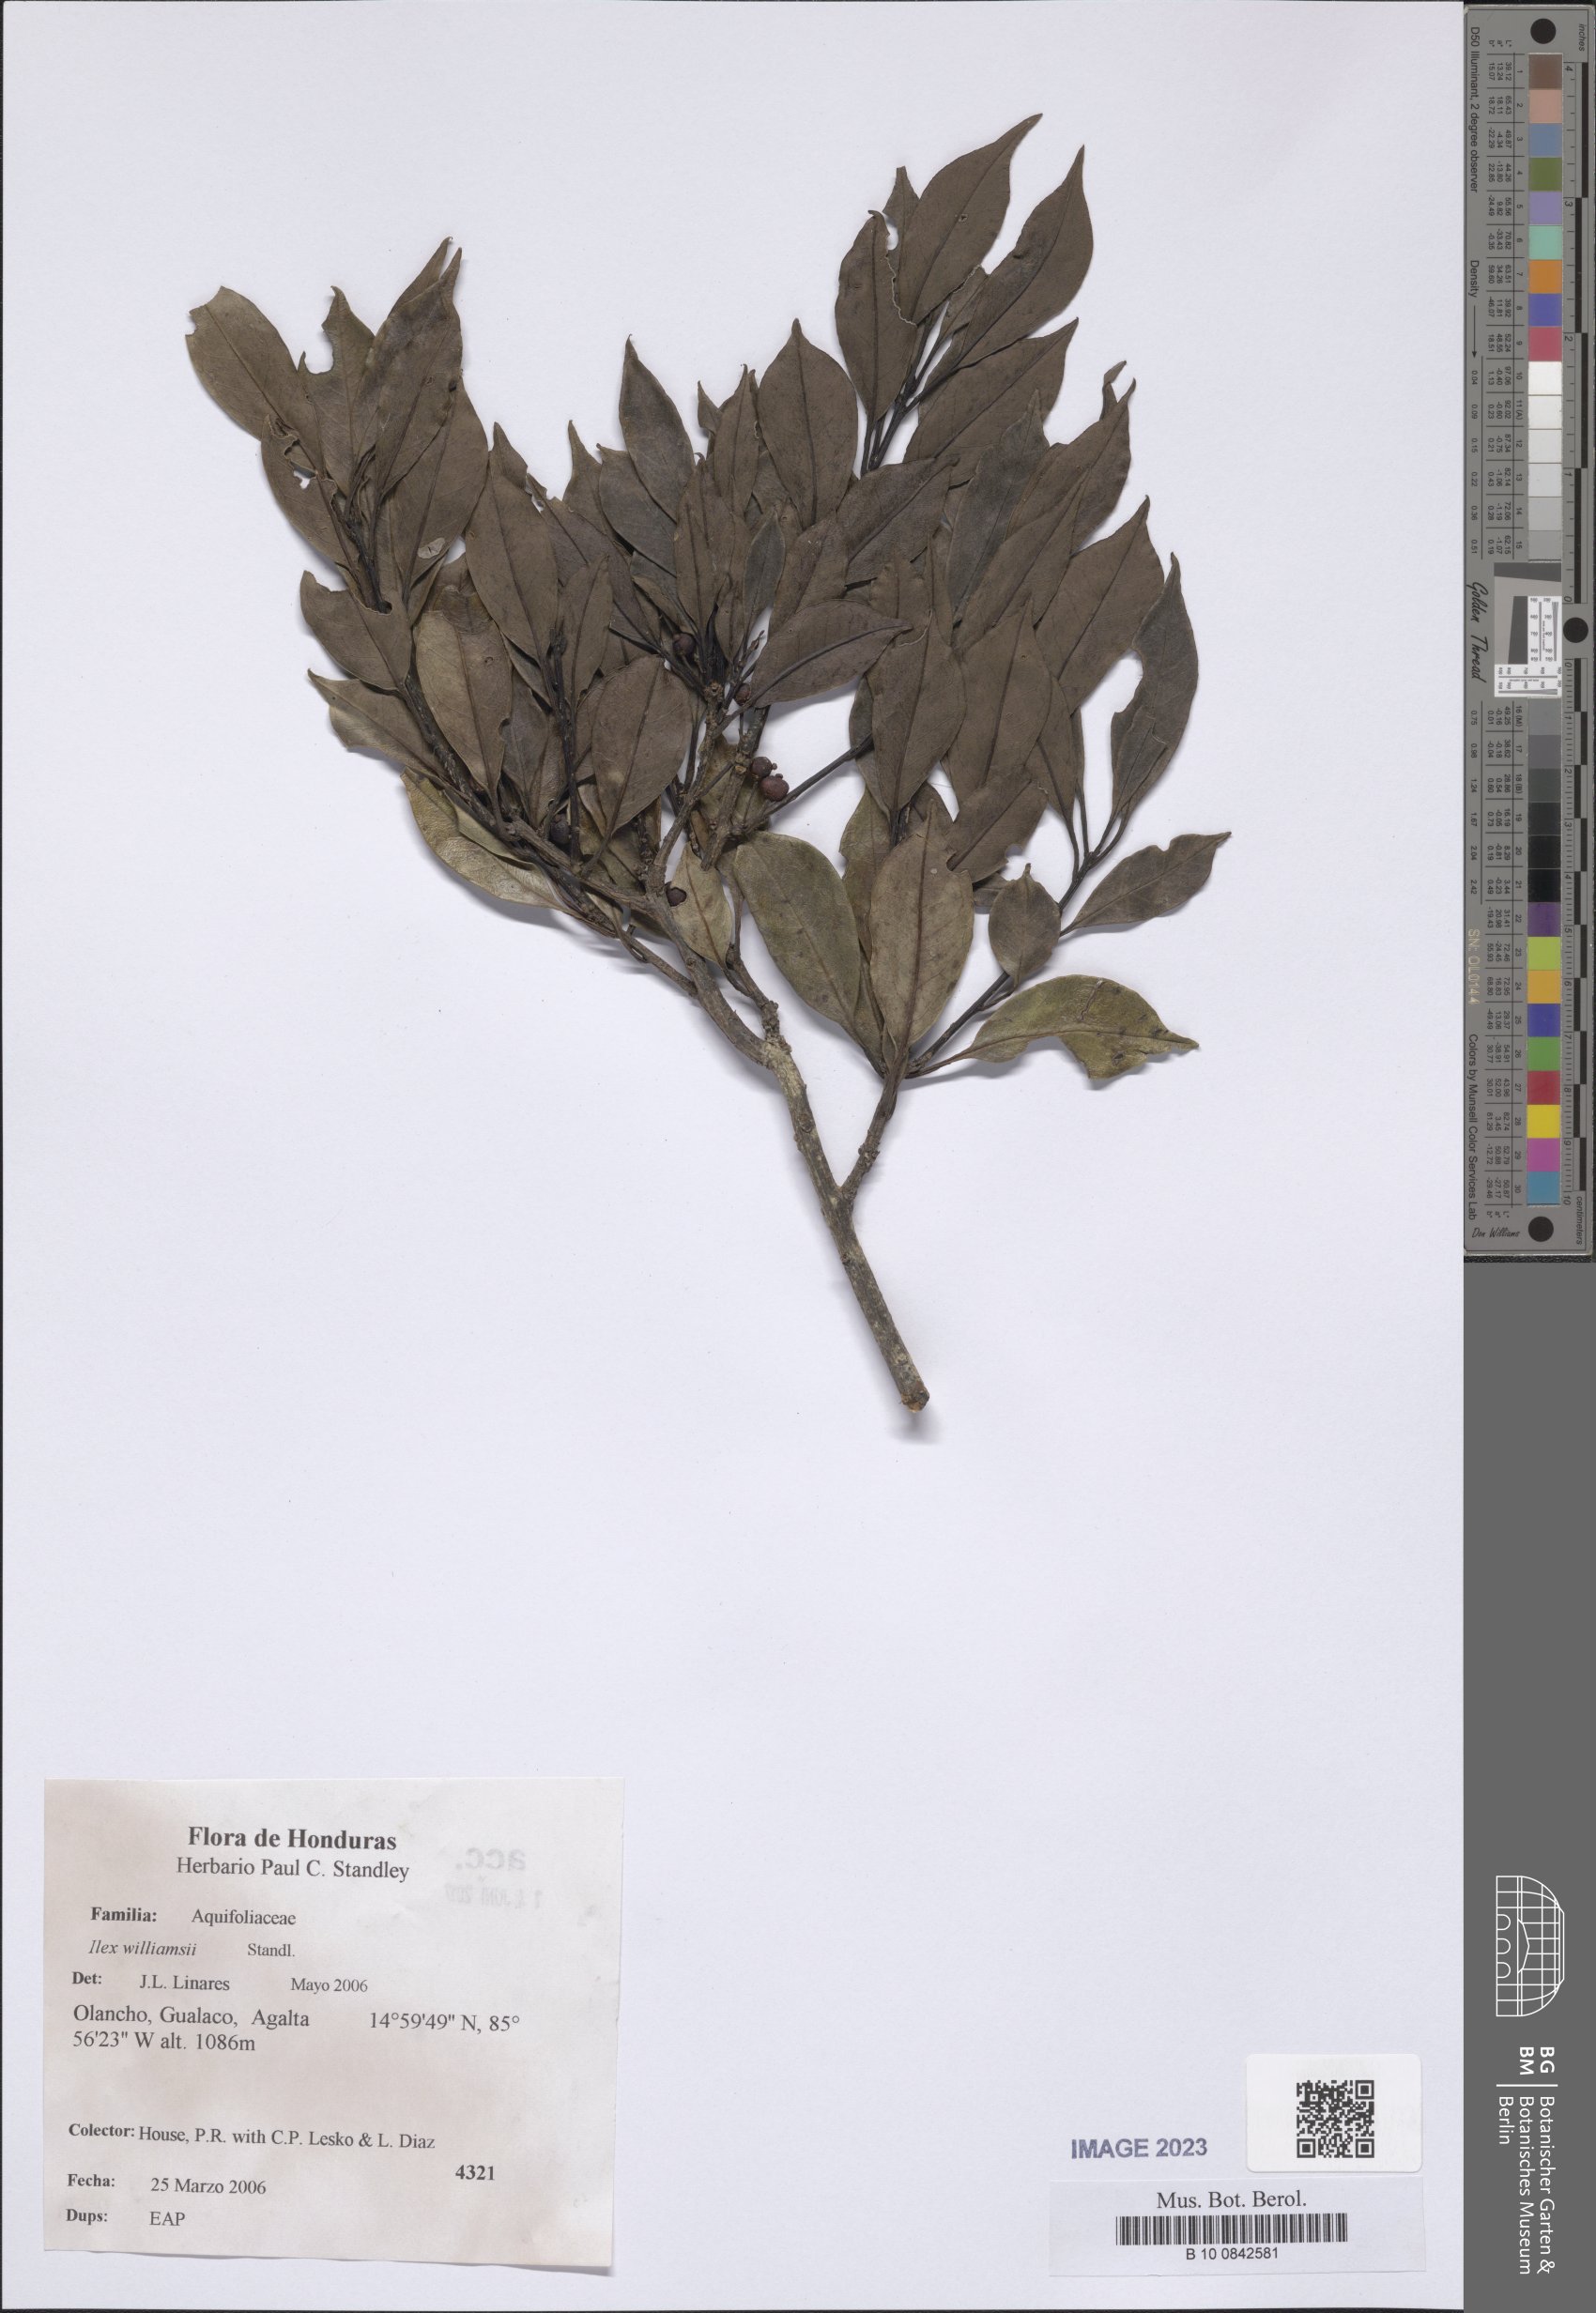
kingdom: Plantae
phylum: Tracheophyta
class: Magnoliopsida
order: Aquifoliales
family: Aquifoliaceae
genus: Ilex
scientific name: Ilex williamsii
